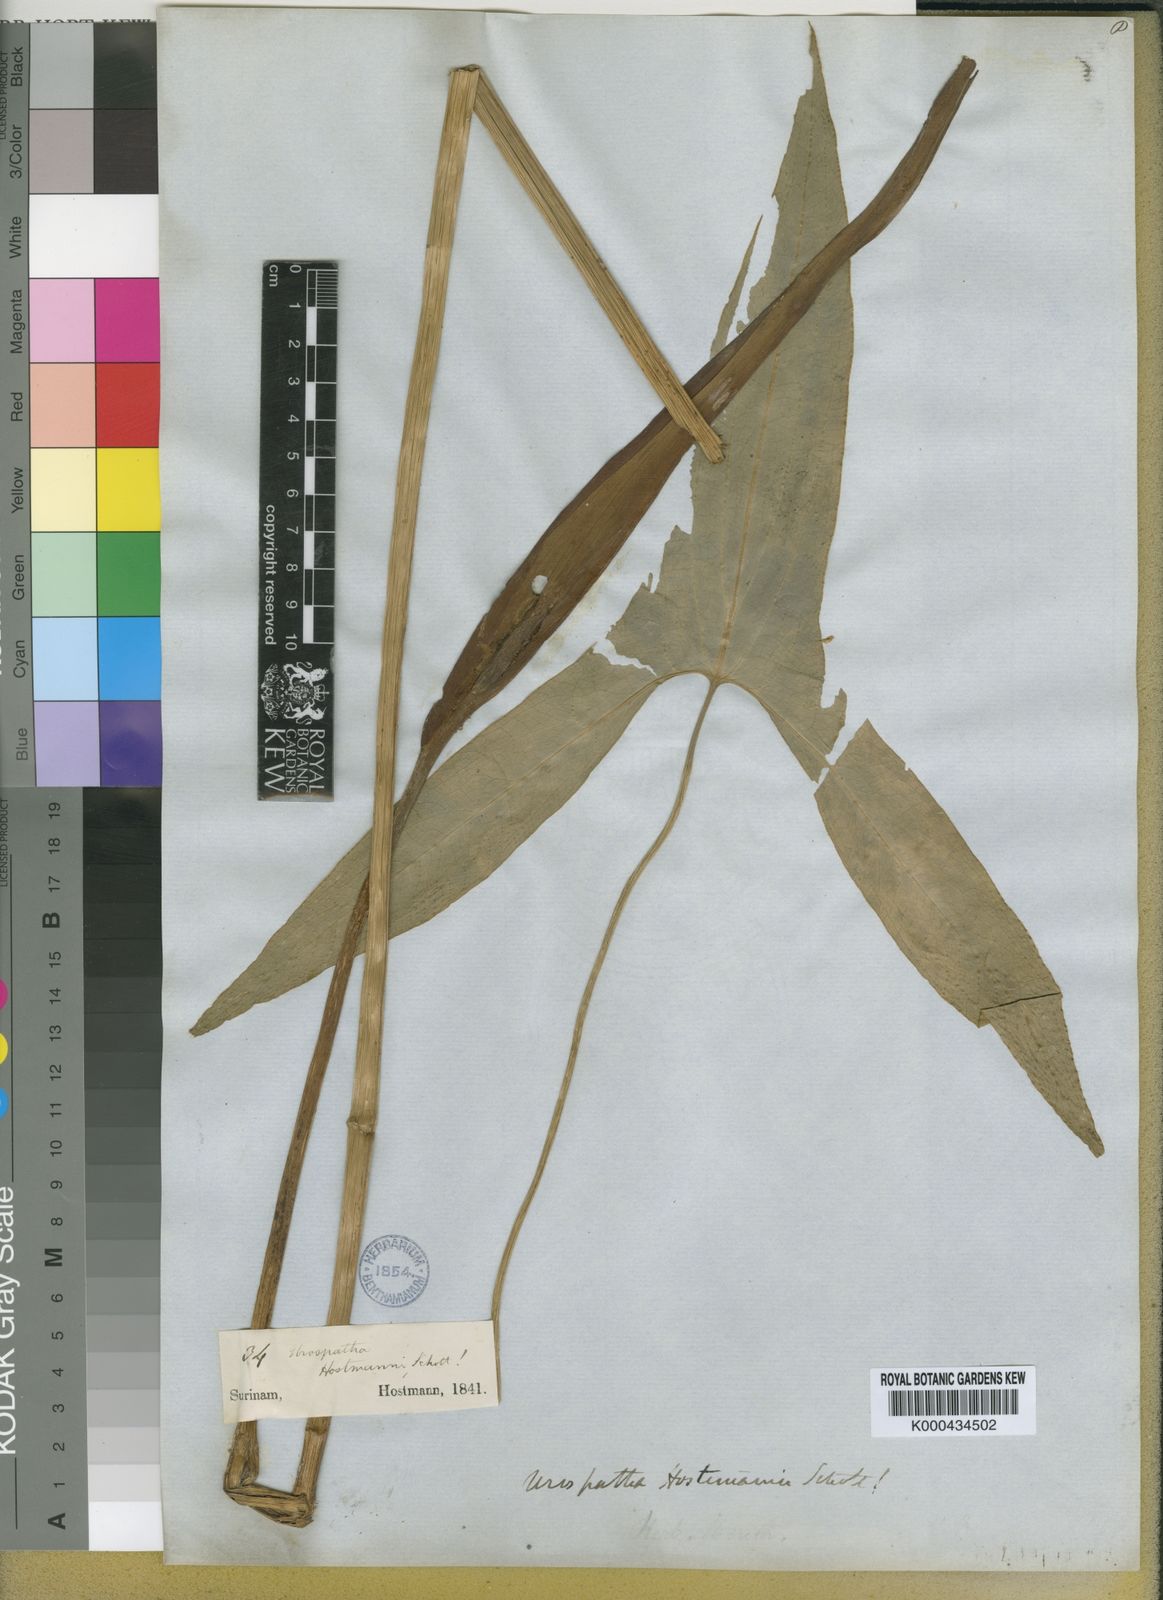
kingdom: Plantae
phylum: Tracheophyta
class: Liliopsida
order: Alismatales
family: Araceae
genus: Urospatha
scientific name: Urospatha sagittifolia
